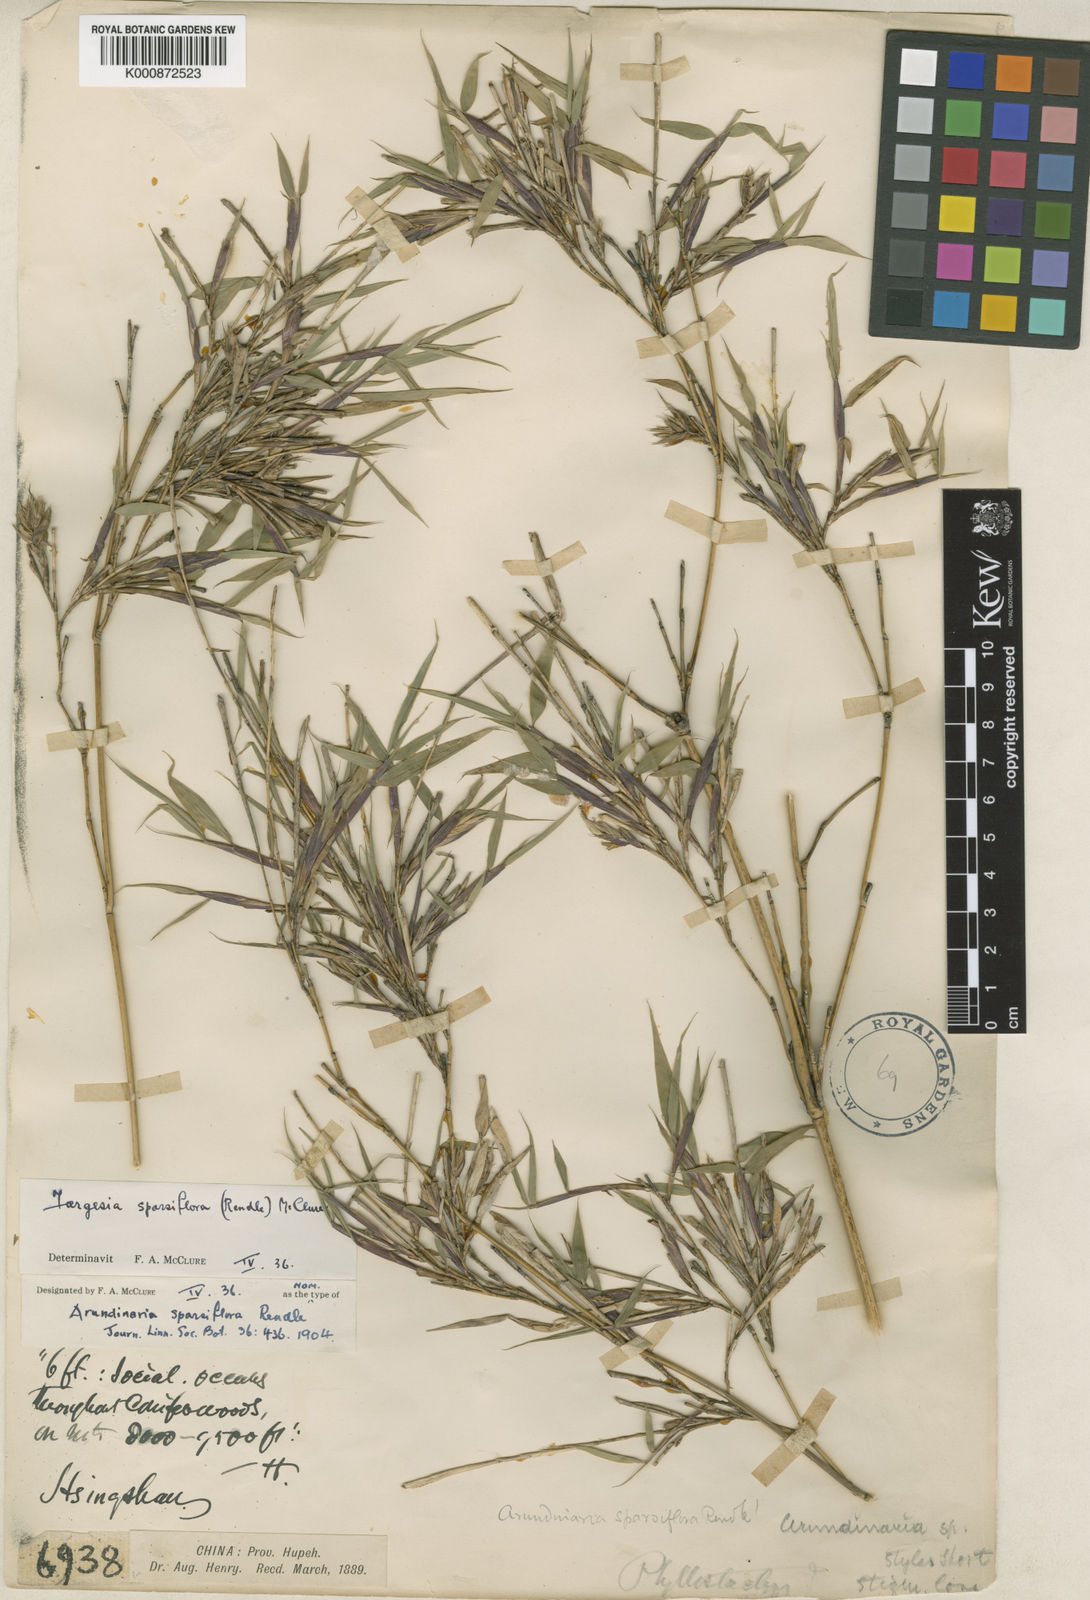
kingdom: Plantae
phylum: Tracheophyta
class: Liliopsida
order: Poales
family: Poaceae
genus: Fargesia
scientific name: Fargesia murielae
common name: Umbrella bamboo
